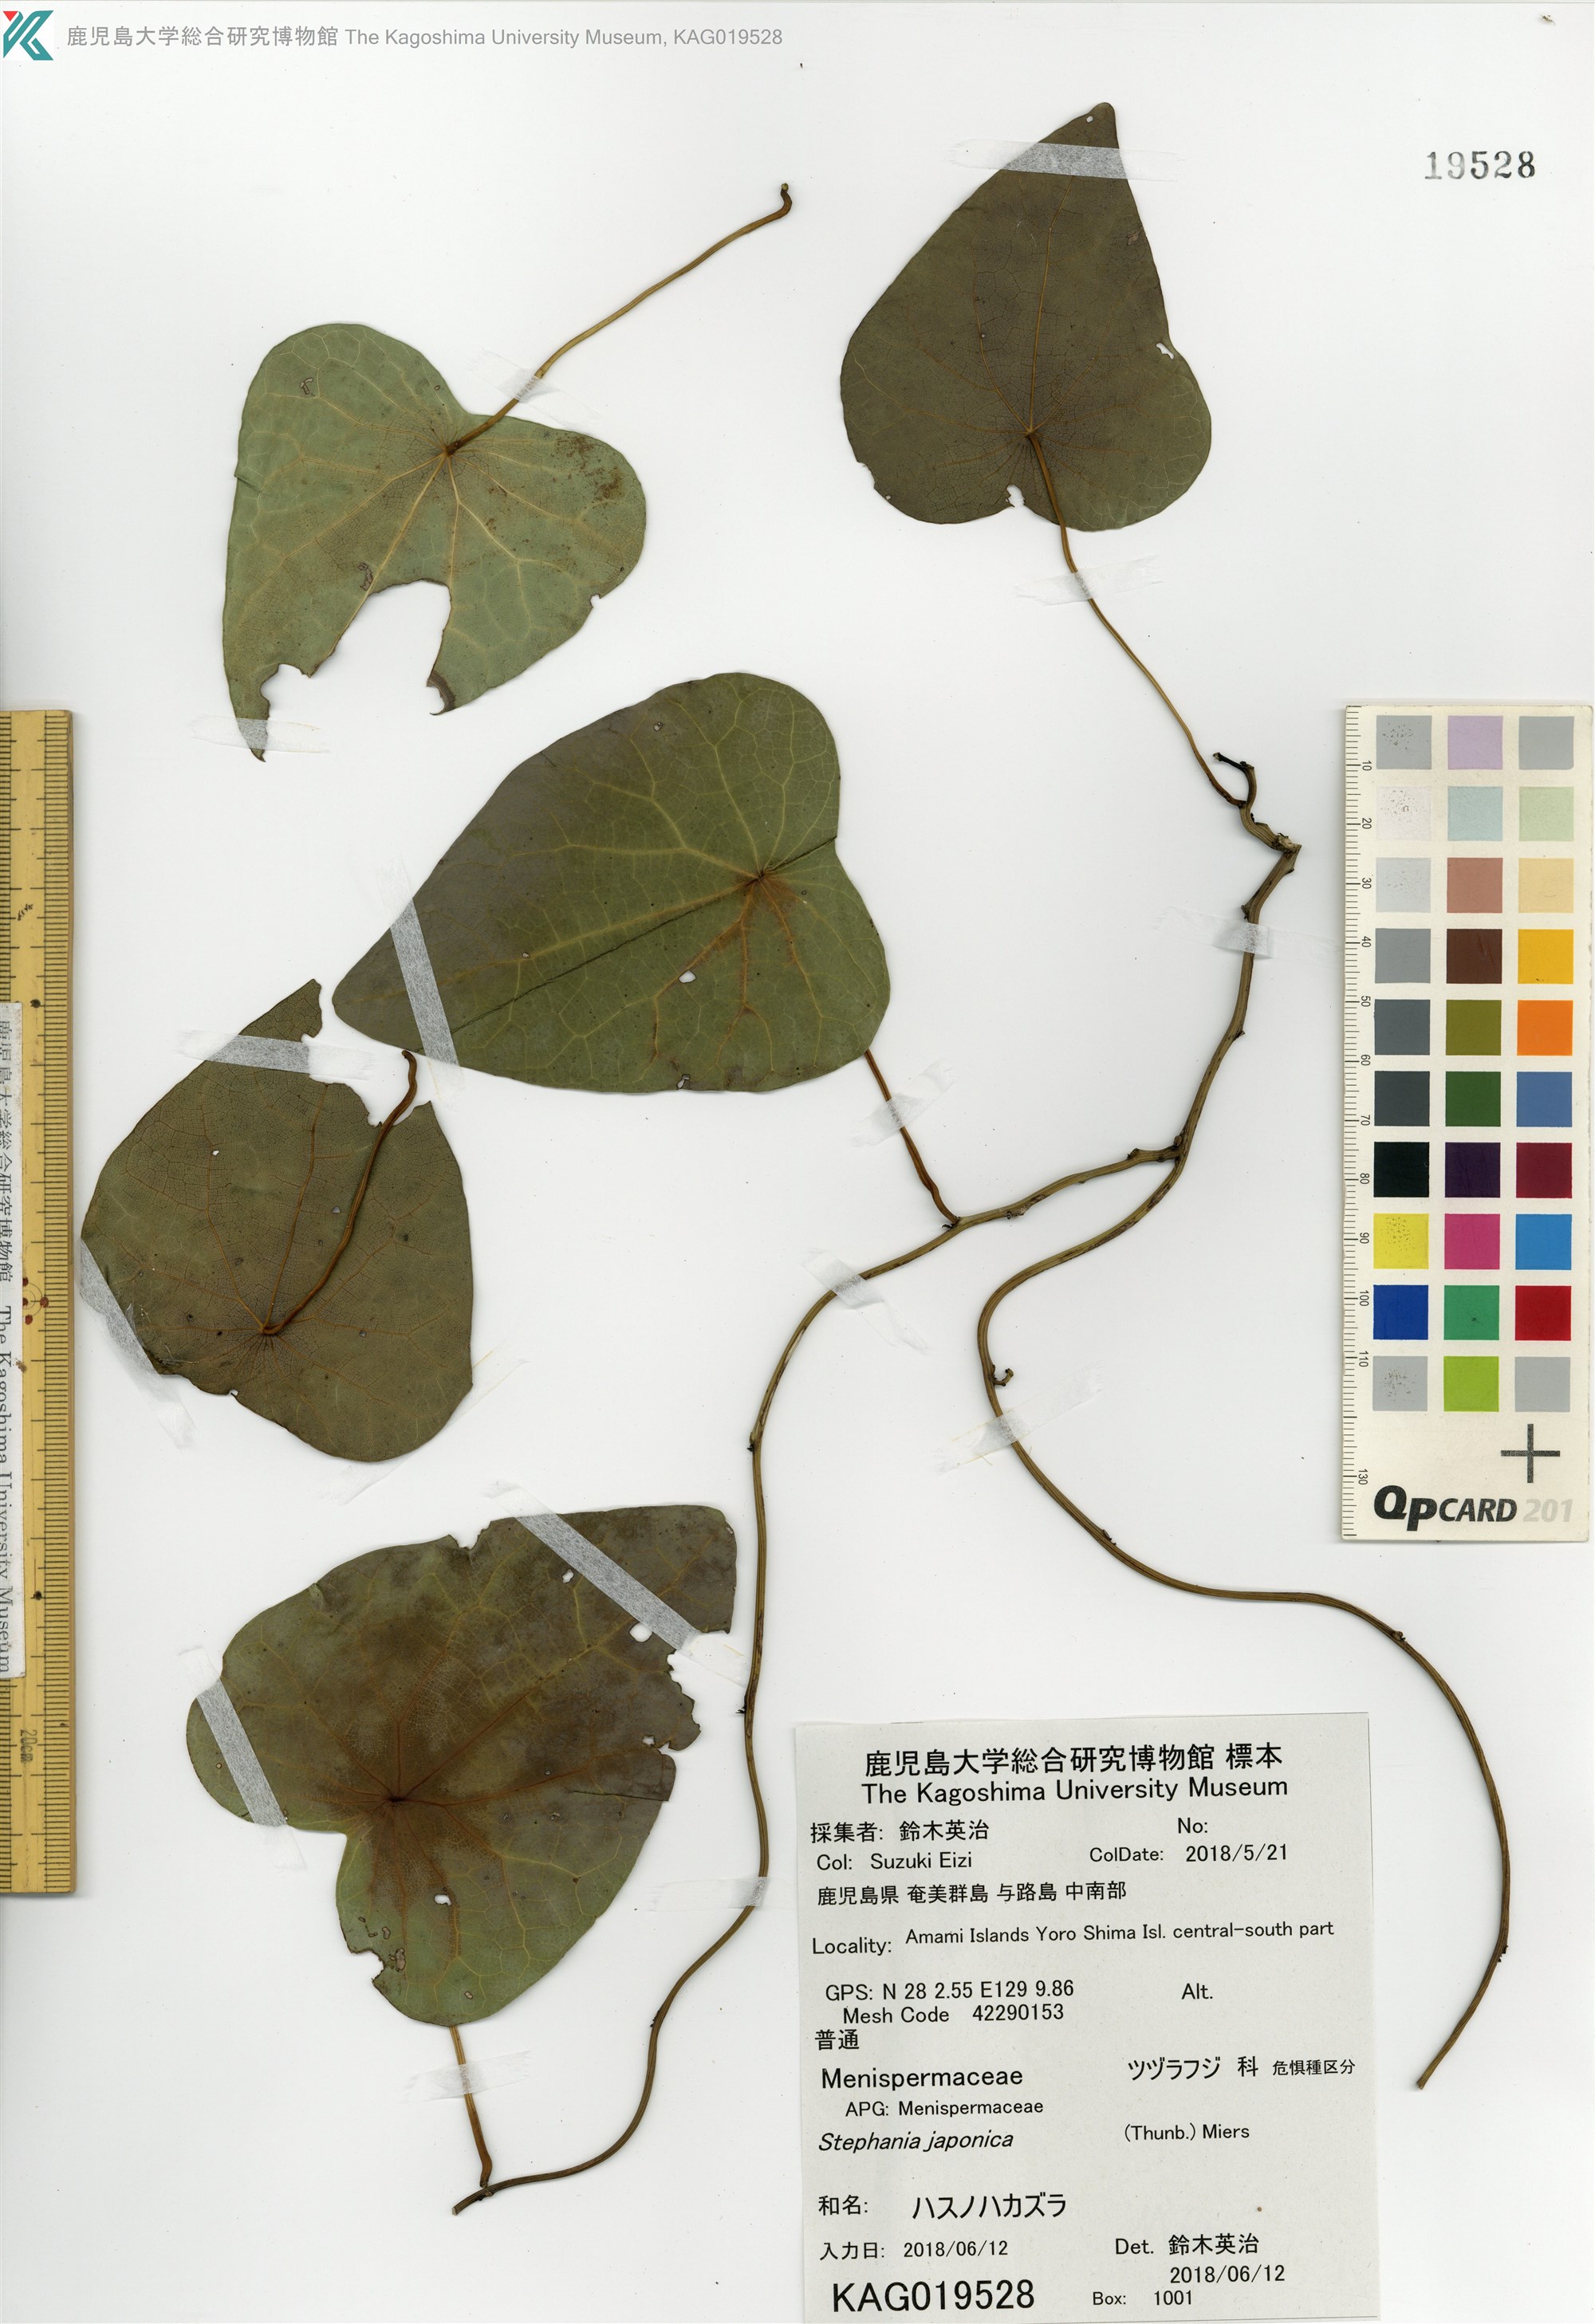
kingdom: Plantae
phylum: Tracheophyta
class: Magnoliopsida
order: Ranunculales
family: Menispermaceae
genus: Stephania
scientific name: Stephania japonica
